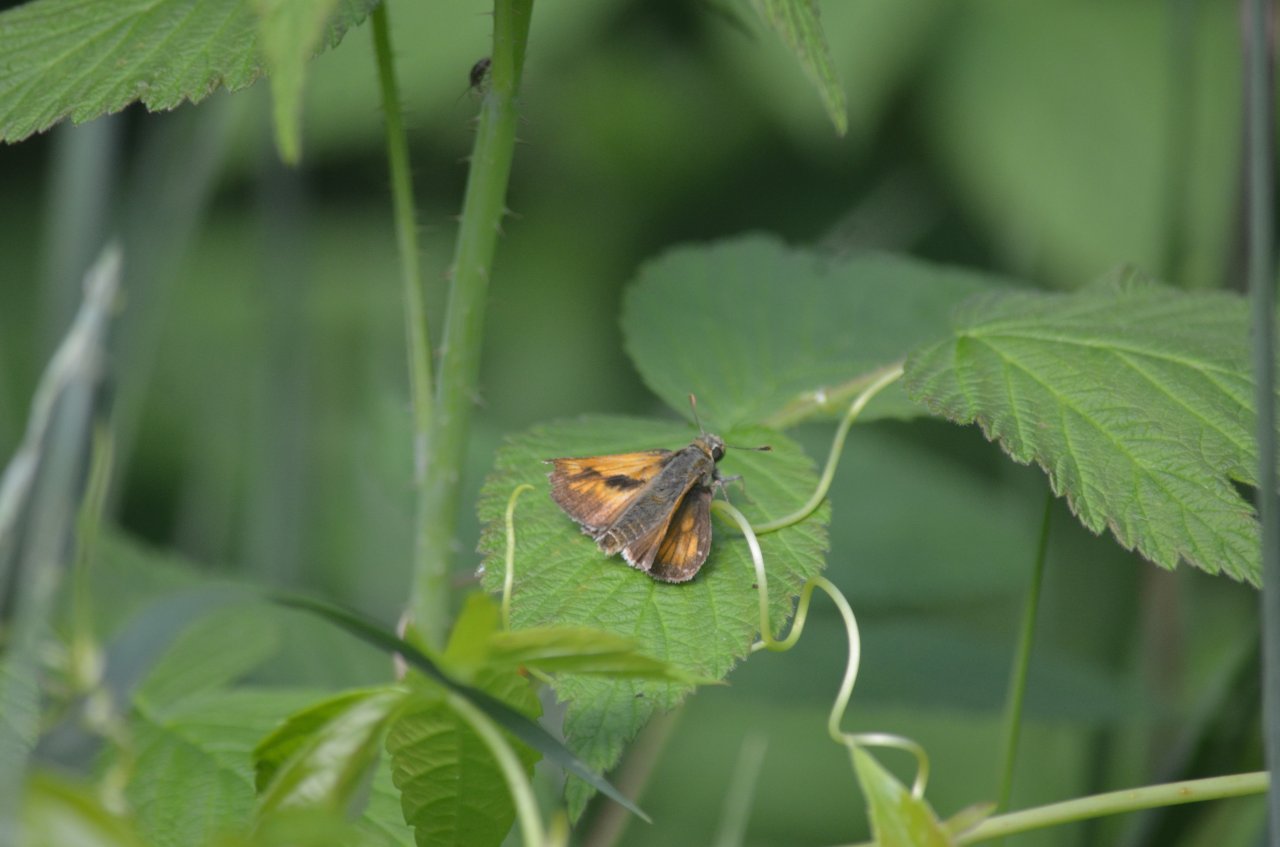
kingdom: Animalia
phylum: Arthropoda
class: Insecta
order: Lepidoptera
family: Hesperiidae
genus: Polites
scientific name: Polites
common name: Long Dash Skipper
